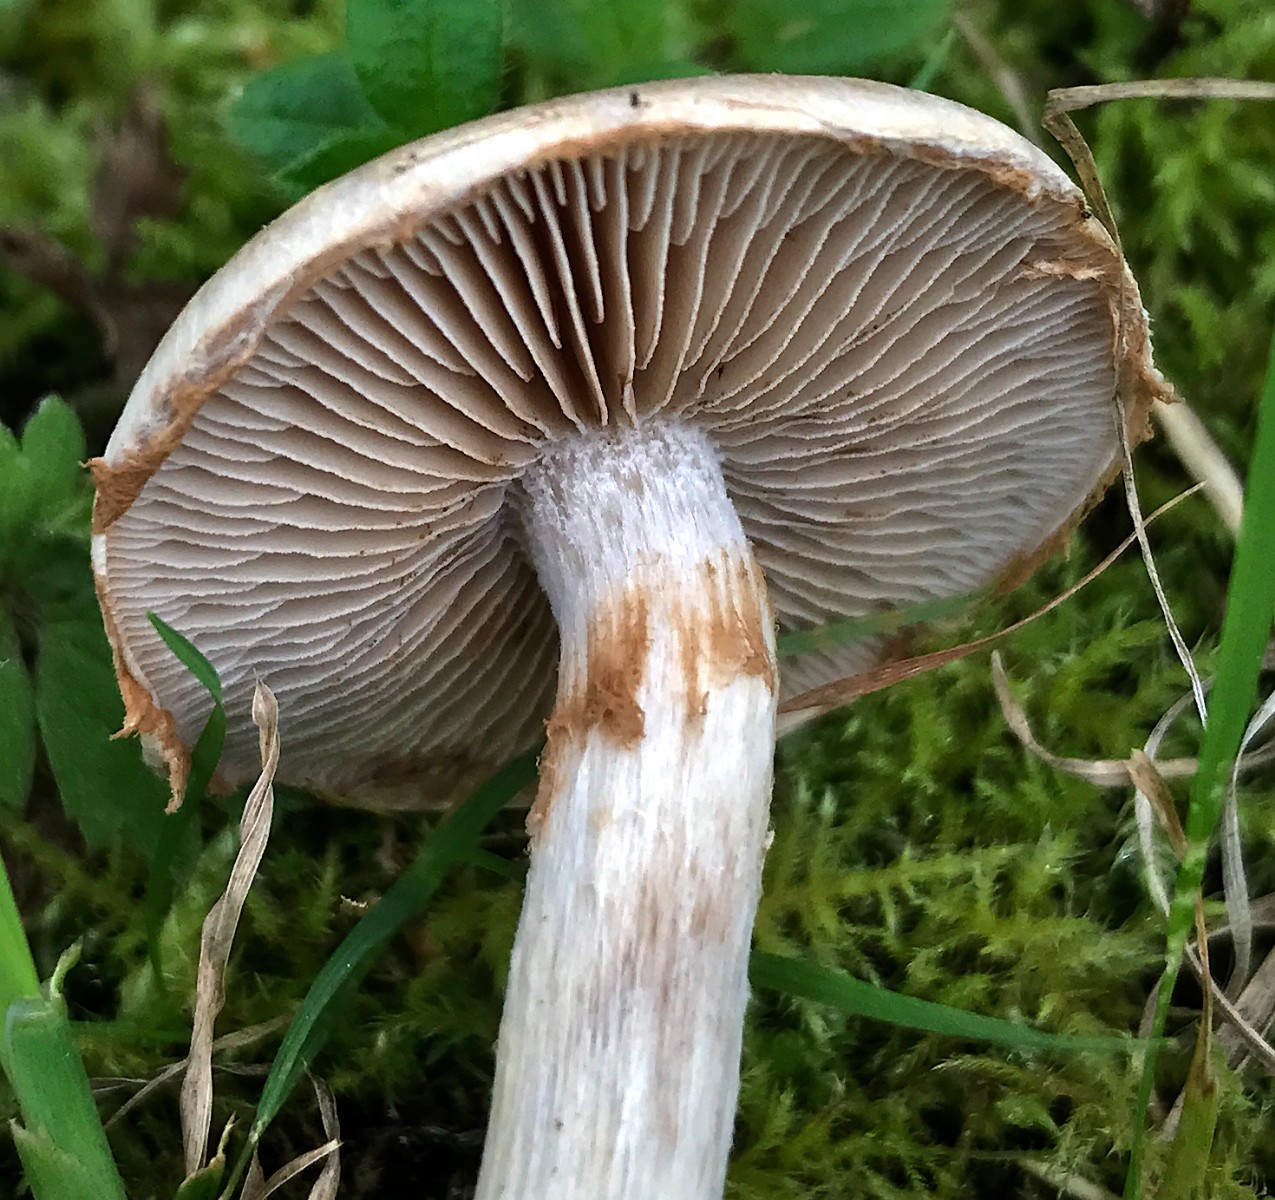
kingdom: Fungi
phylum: Basidiomycota
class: Agaricomycetes
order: Agaricales
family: Hymenogastraceae
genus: Hebeloma
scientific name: Hebeloma
